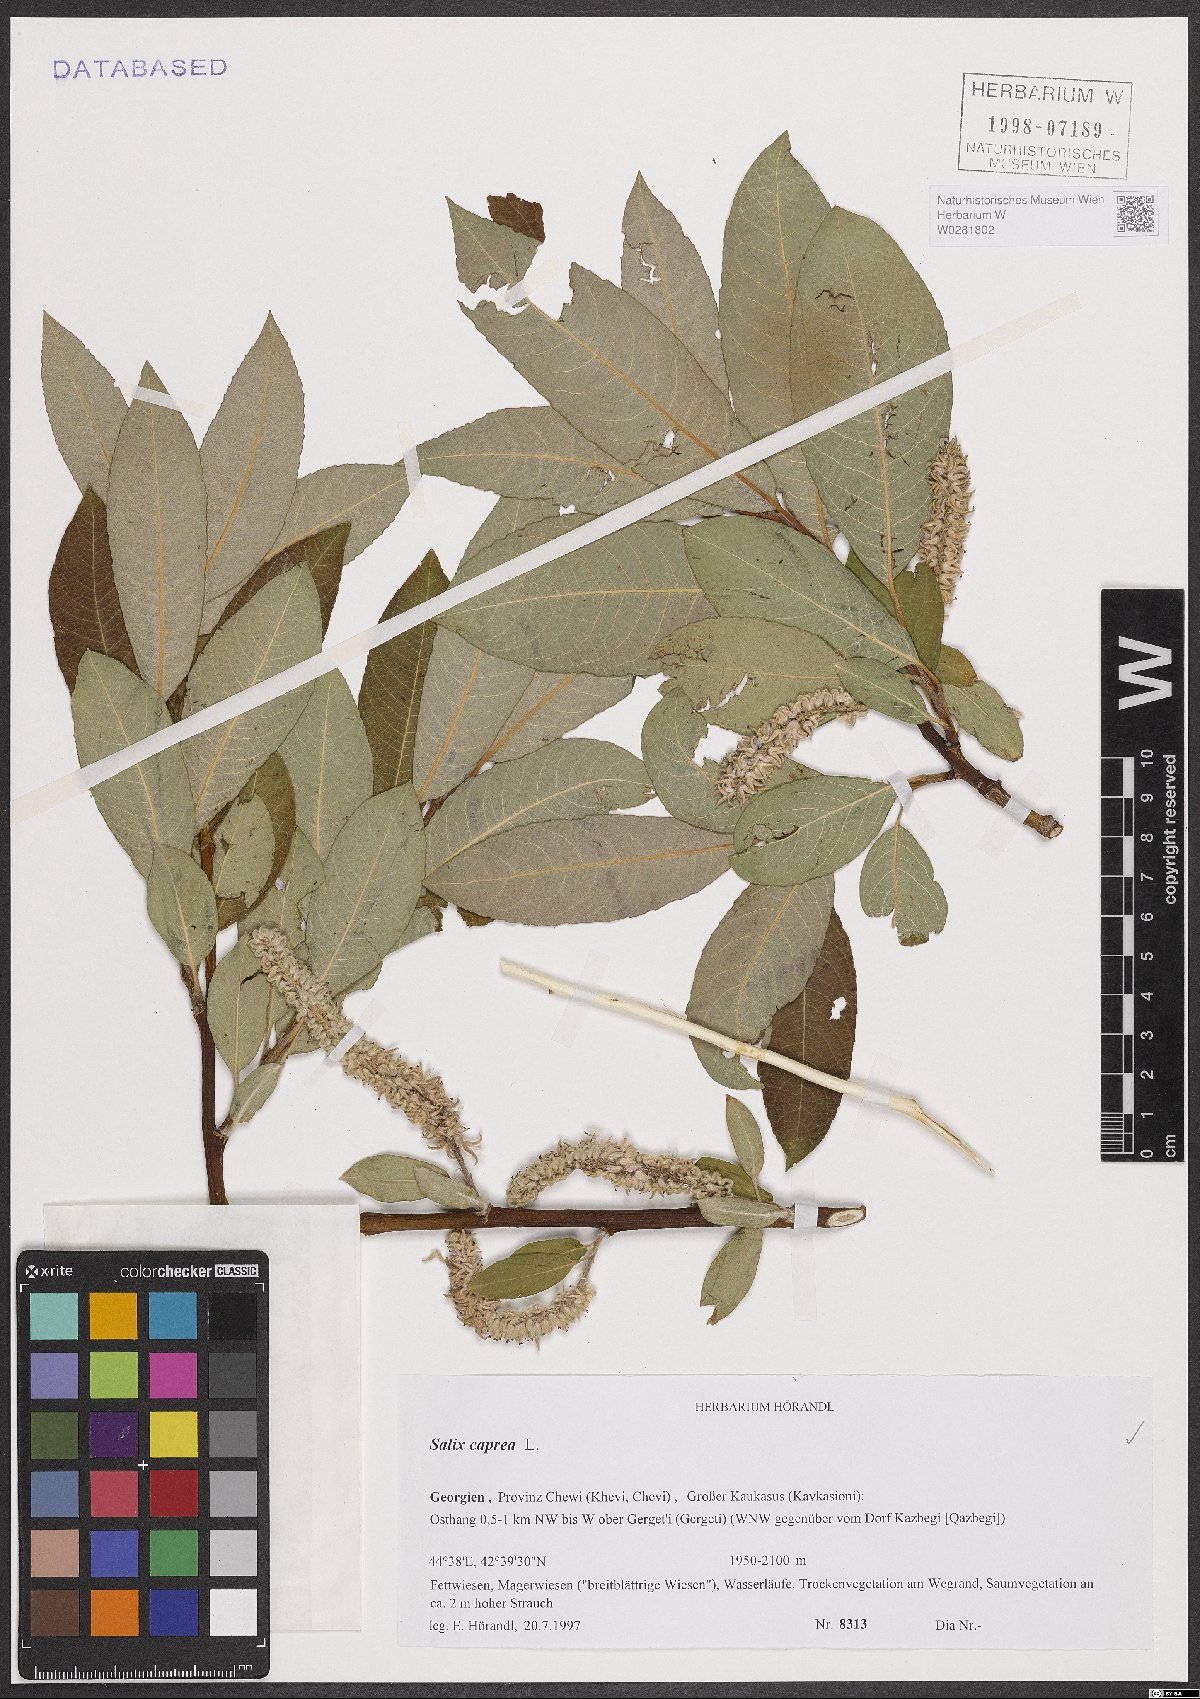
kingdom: Plantae
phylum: Tracheophyta
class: Magnoliopsida
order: Malpighiales
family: Salicaceae
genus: Salix
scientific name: Salix caprea
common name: Goat willow
